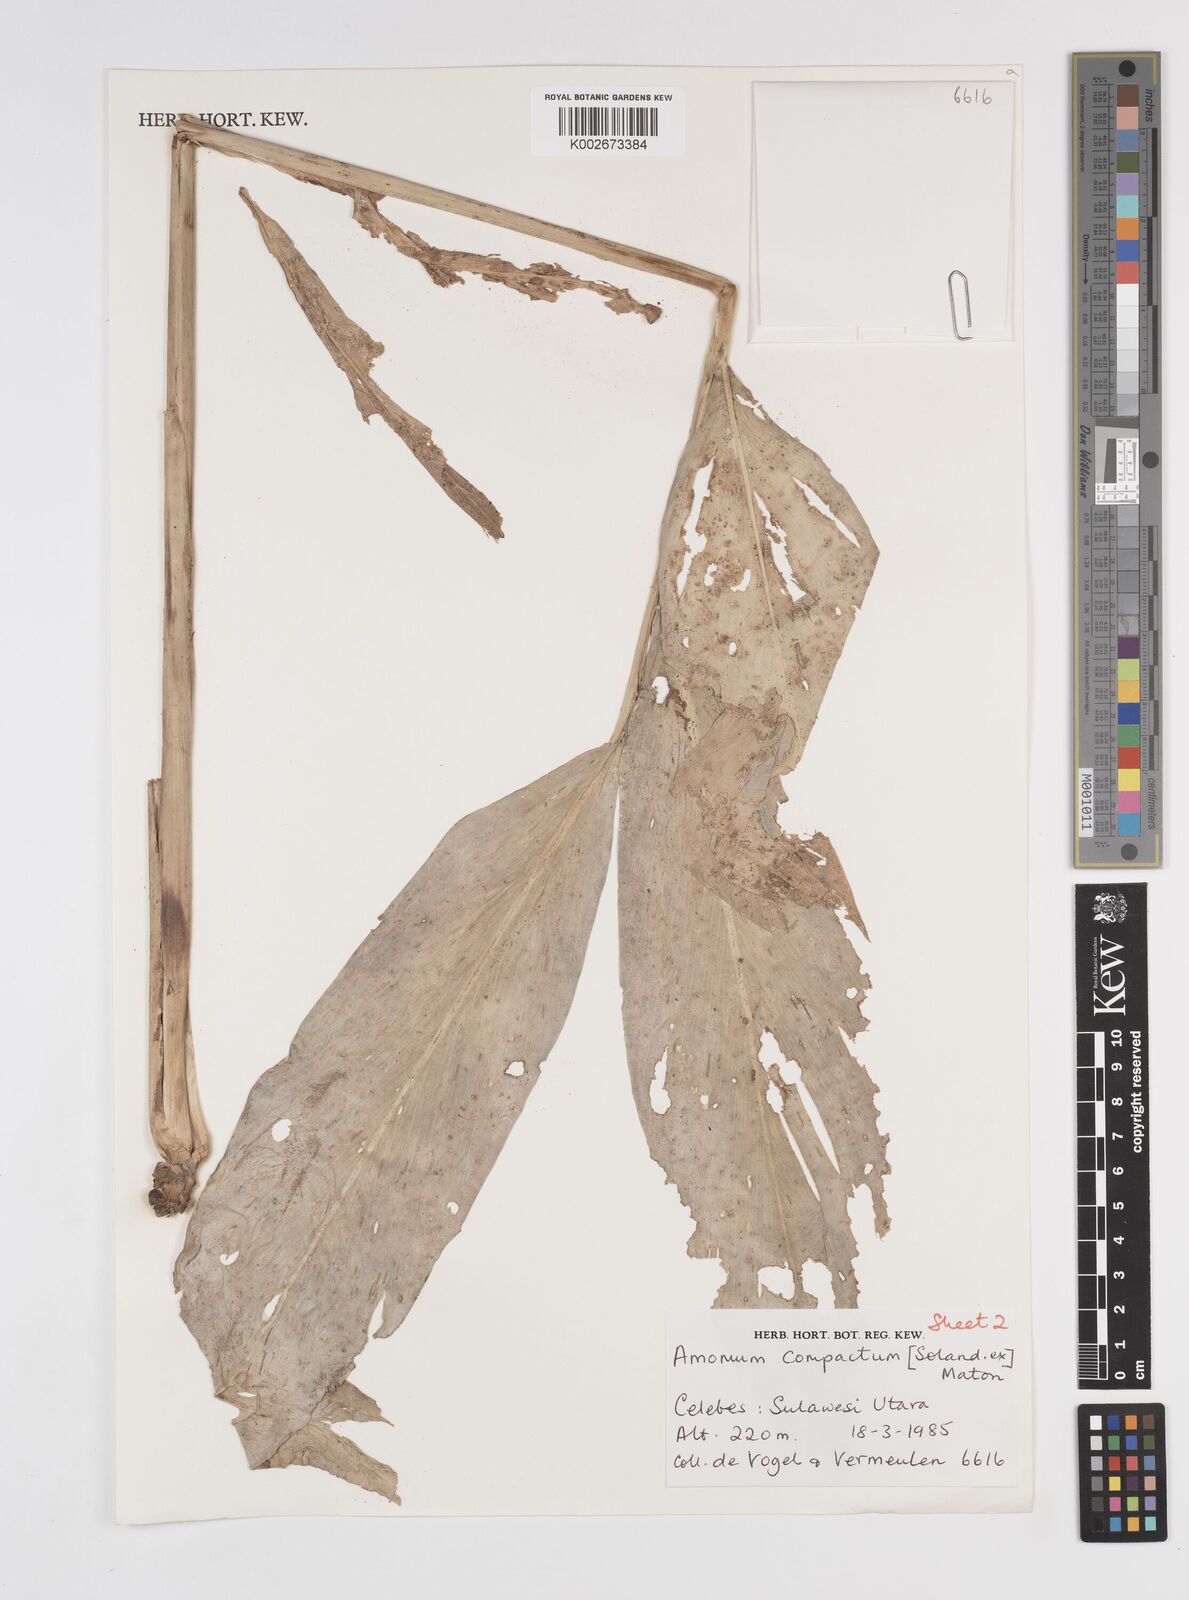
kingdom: Plantae
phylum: Tracheophyta
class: Liliopsida
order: Zingiberales
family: Zingiberaceae
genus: Wurfbainia
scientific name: Wurfbainia compacta
